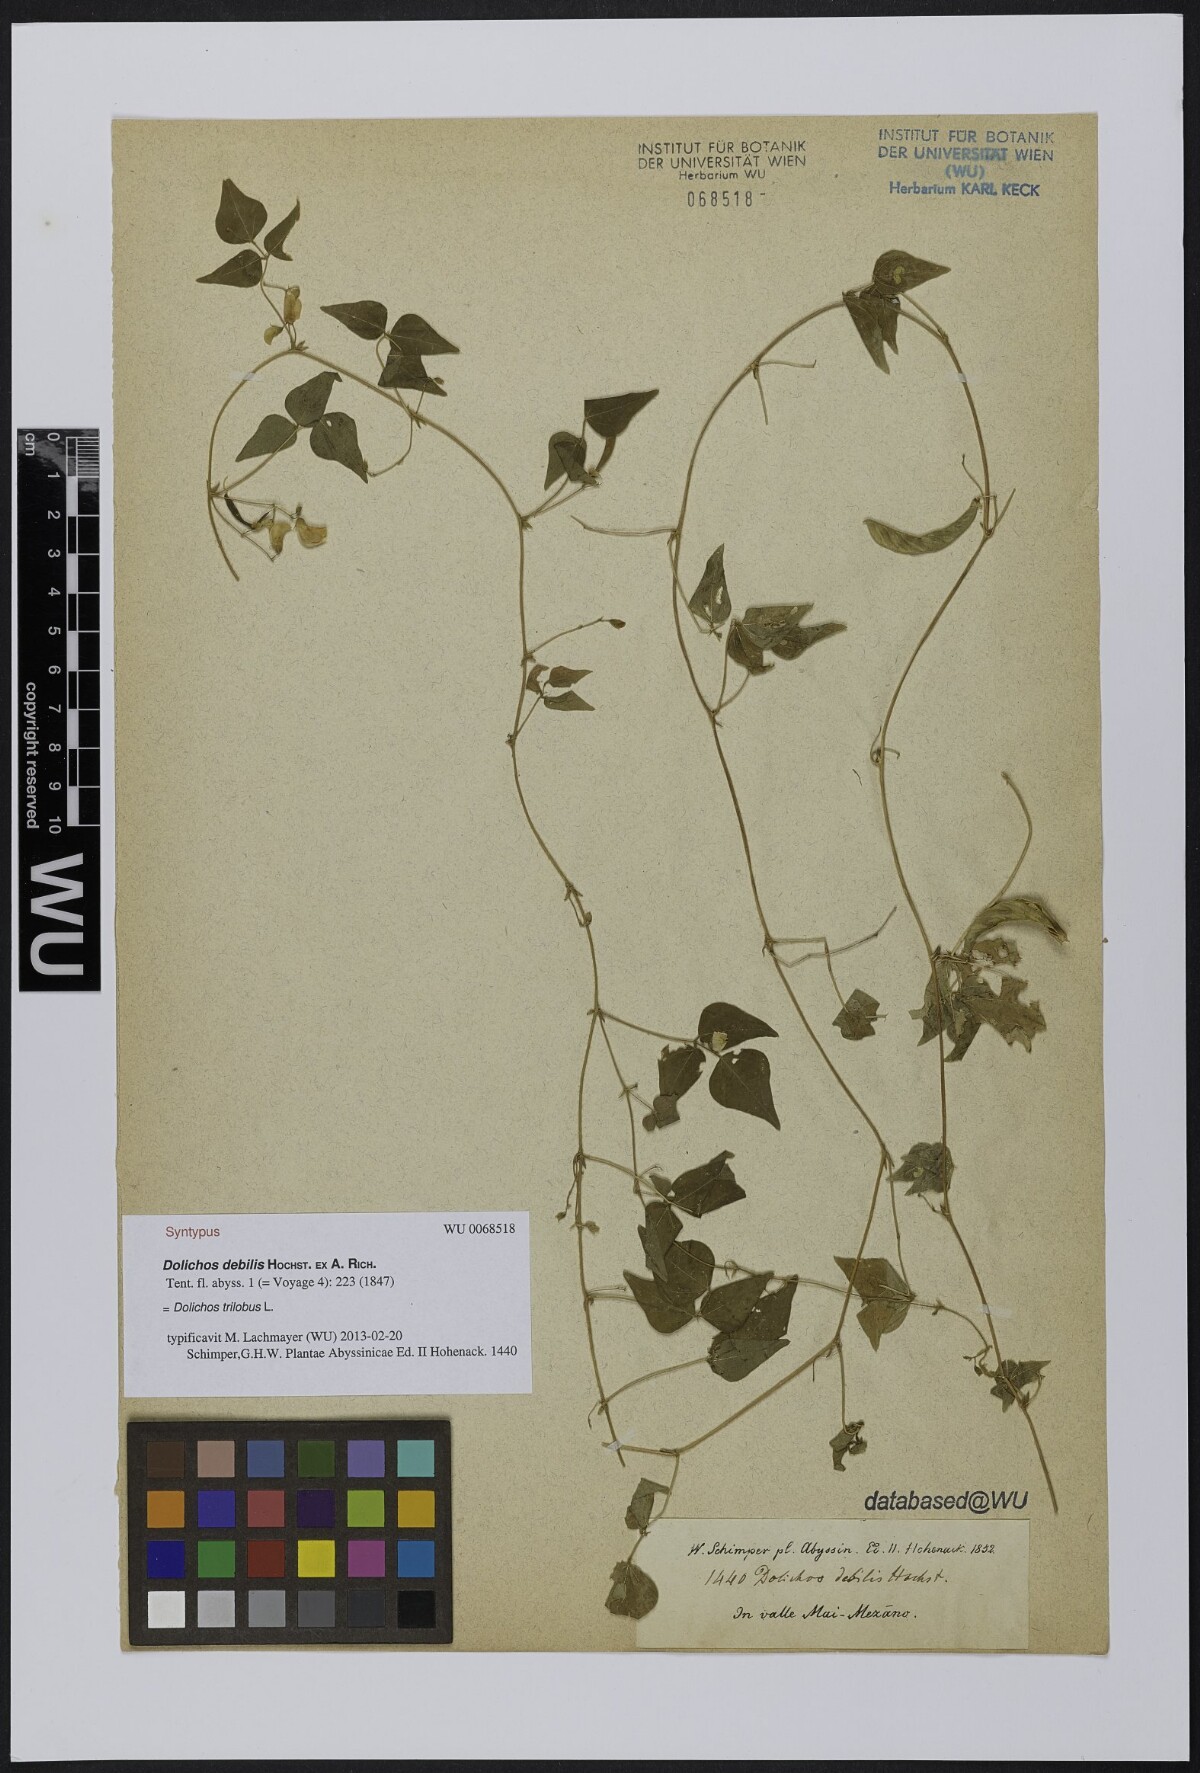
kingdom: Plantae
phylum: Tracheophyta
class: Magnoliopsida
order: Fabales
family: Fabaceae
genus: Dolichos
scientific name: Dolichos trilobus
